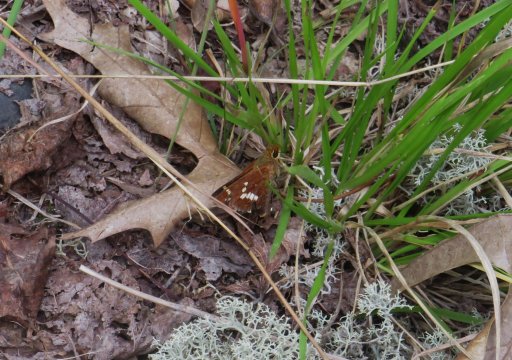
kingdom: Animalia
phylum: Arthropoda
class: Insecta
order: Lepidoptera
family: Hesperiidae
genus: Hesperia
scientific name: Hesperia leonardus
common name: Leonard's Skipper
